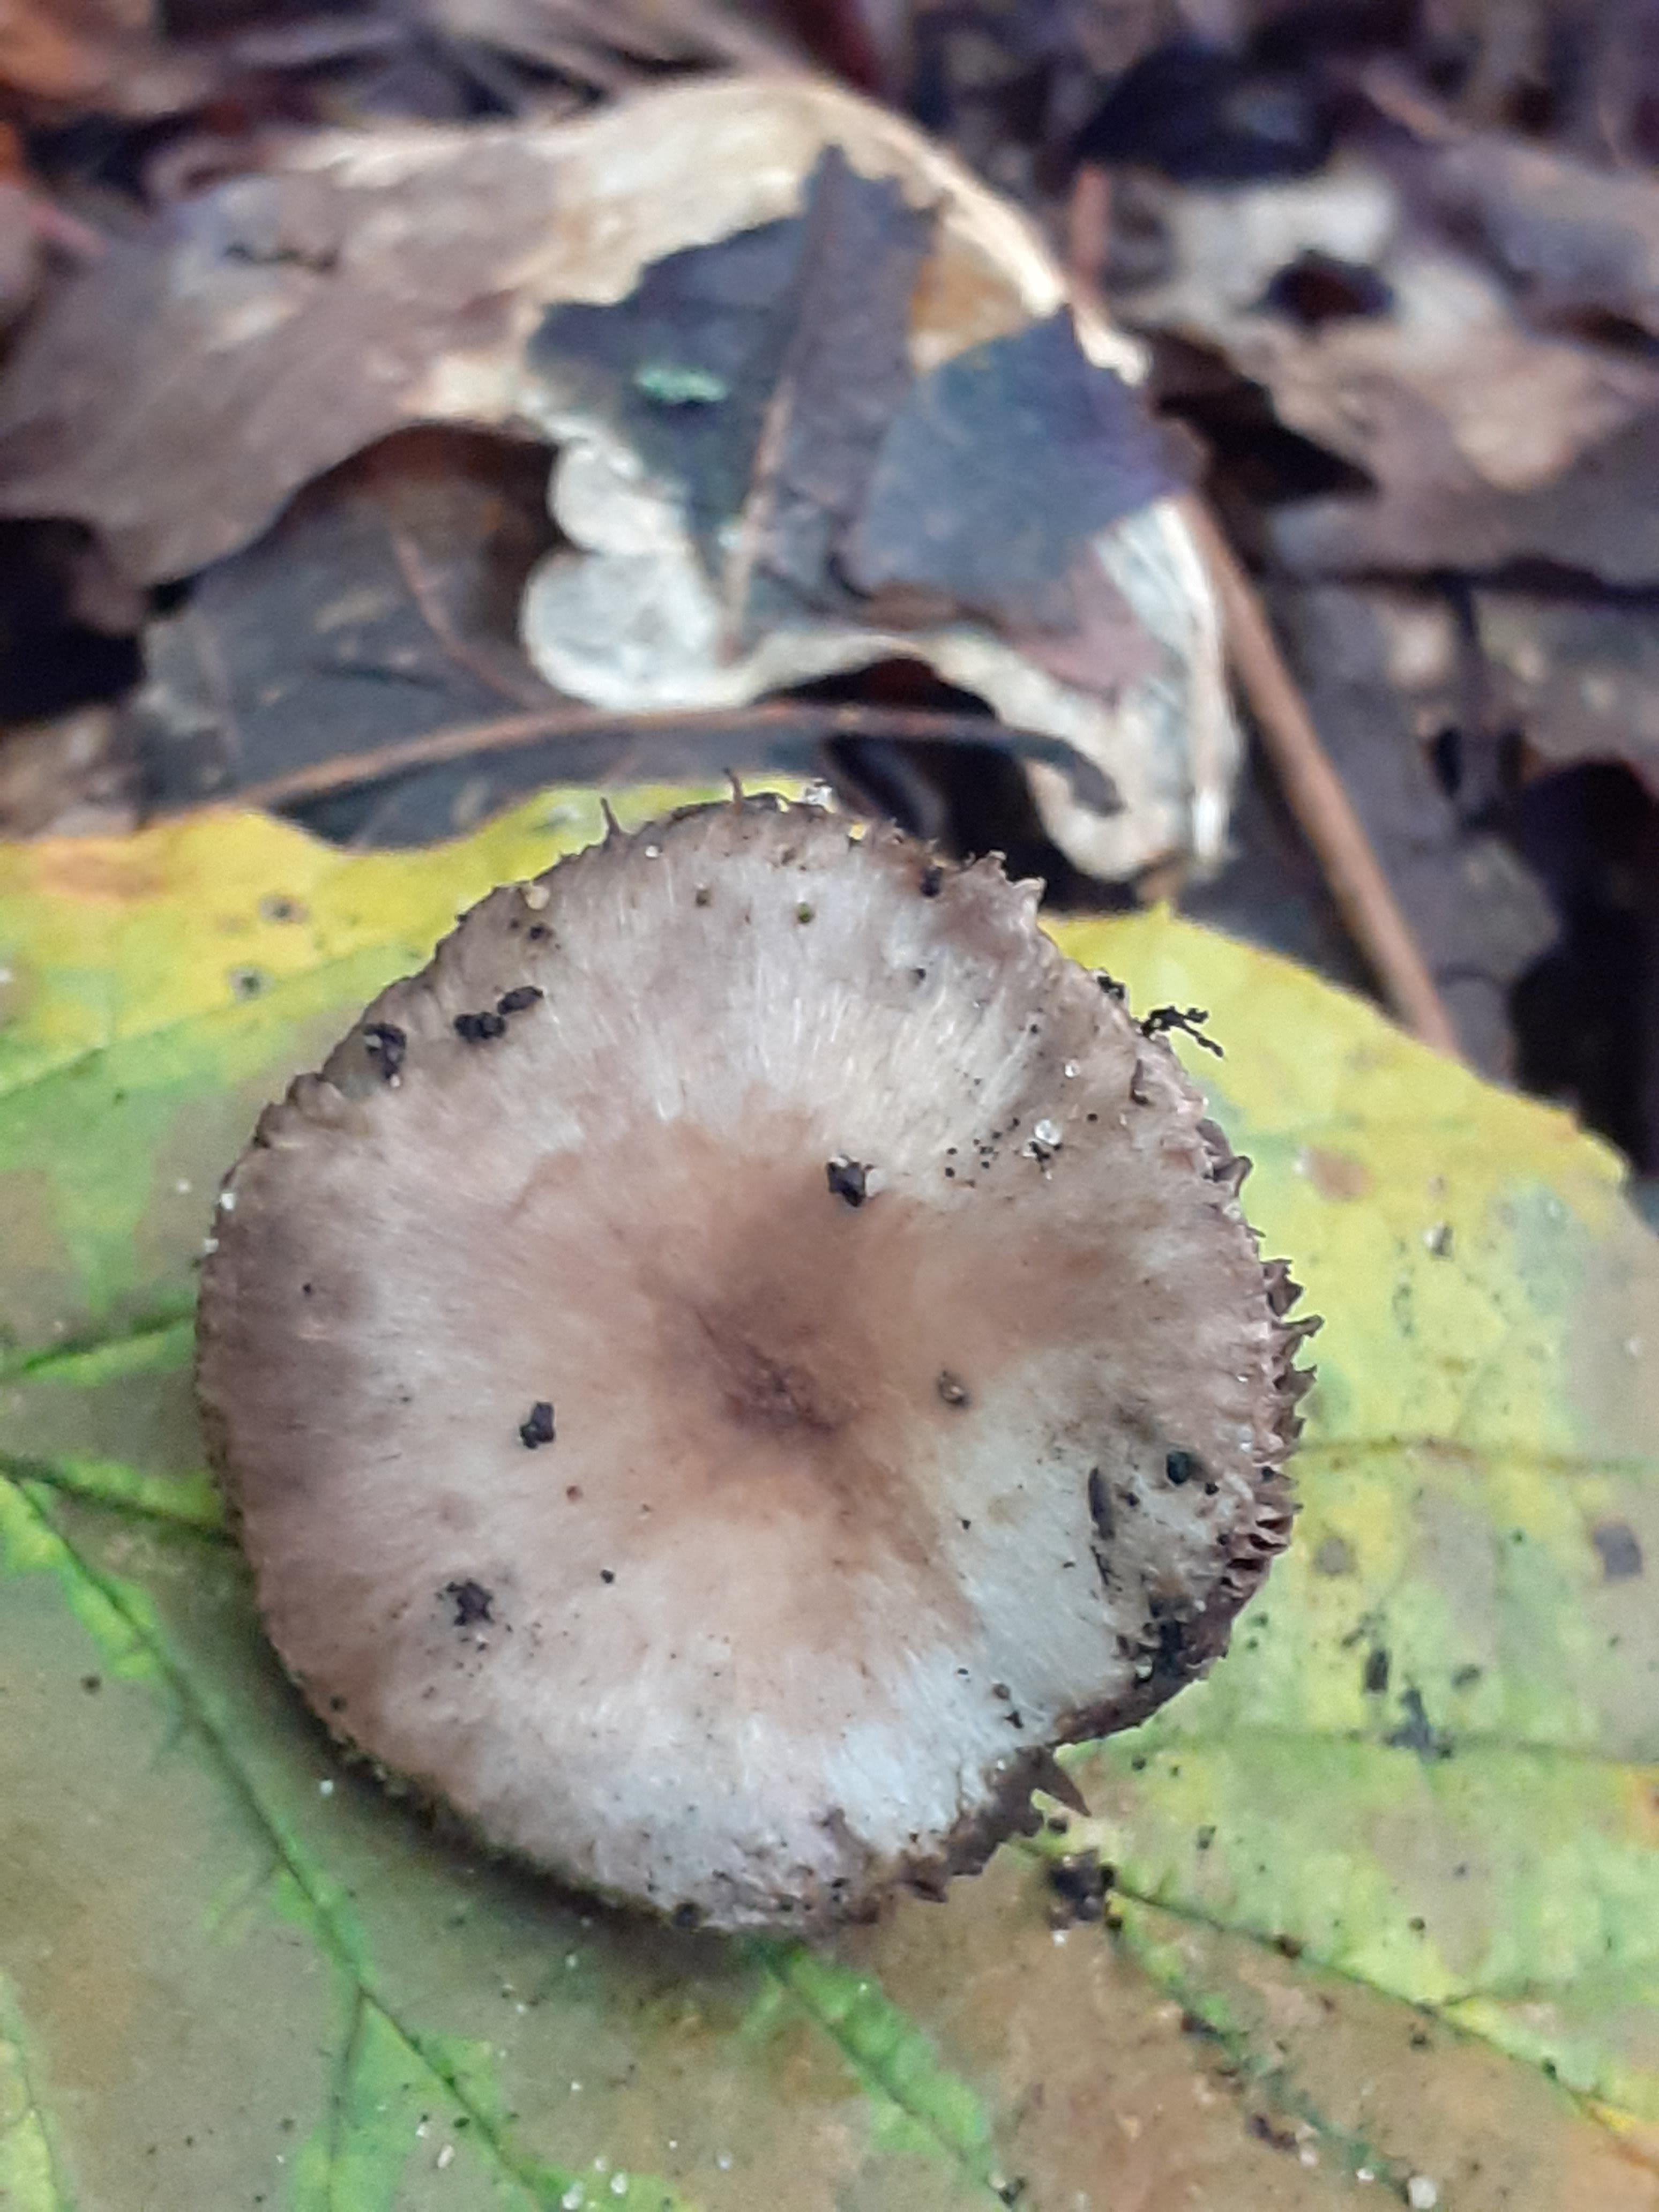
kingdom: Fungi
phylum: Basidiomycota
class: Agaricomycetes
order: Agaricales
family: Agaricaceae
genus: Agaricus
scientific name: Agaricus dulcidulus
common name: blegrød champignon
